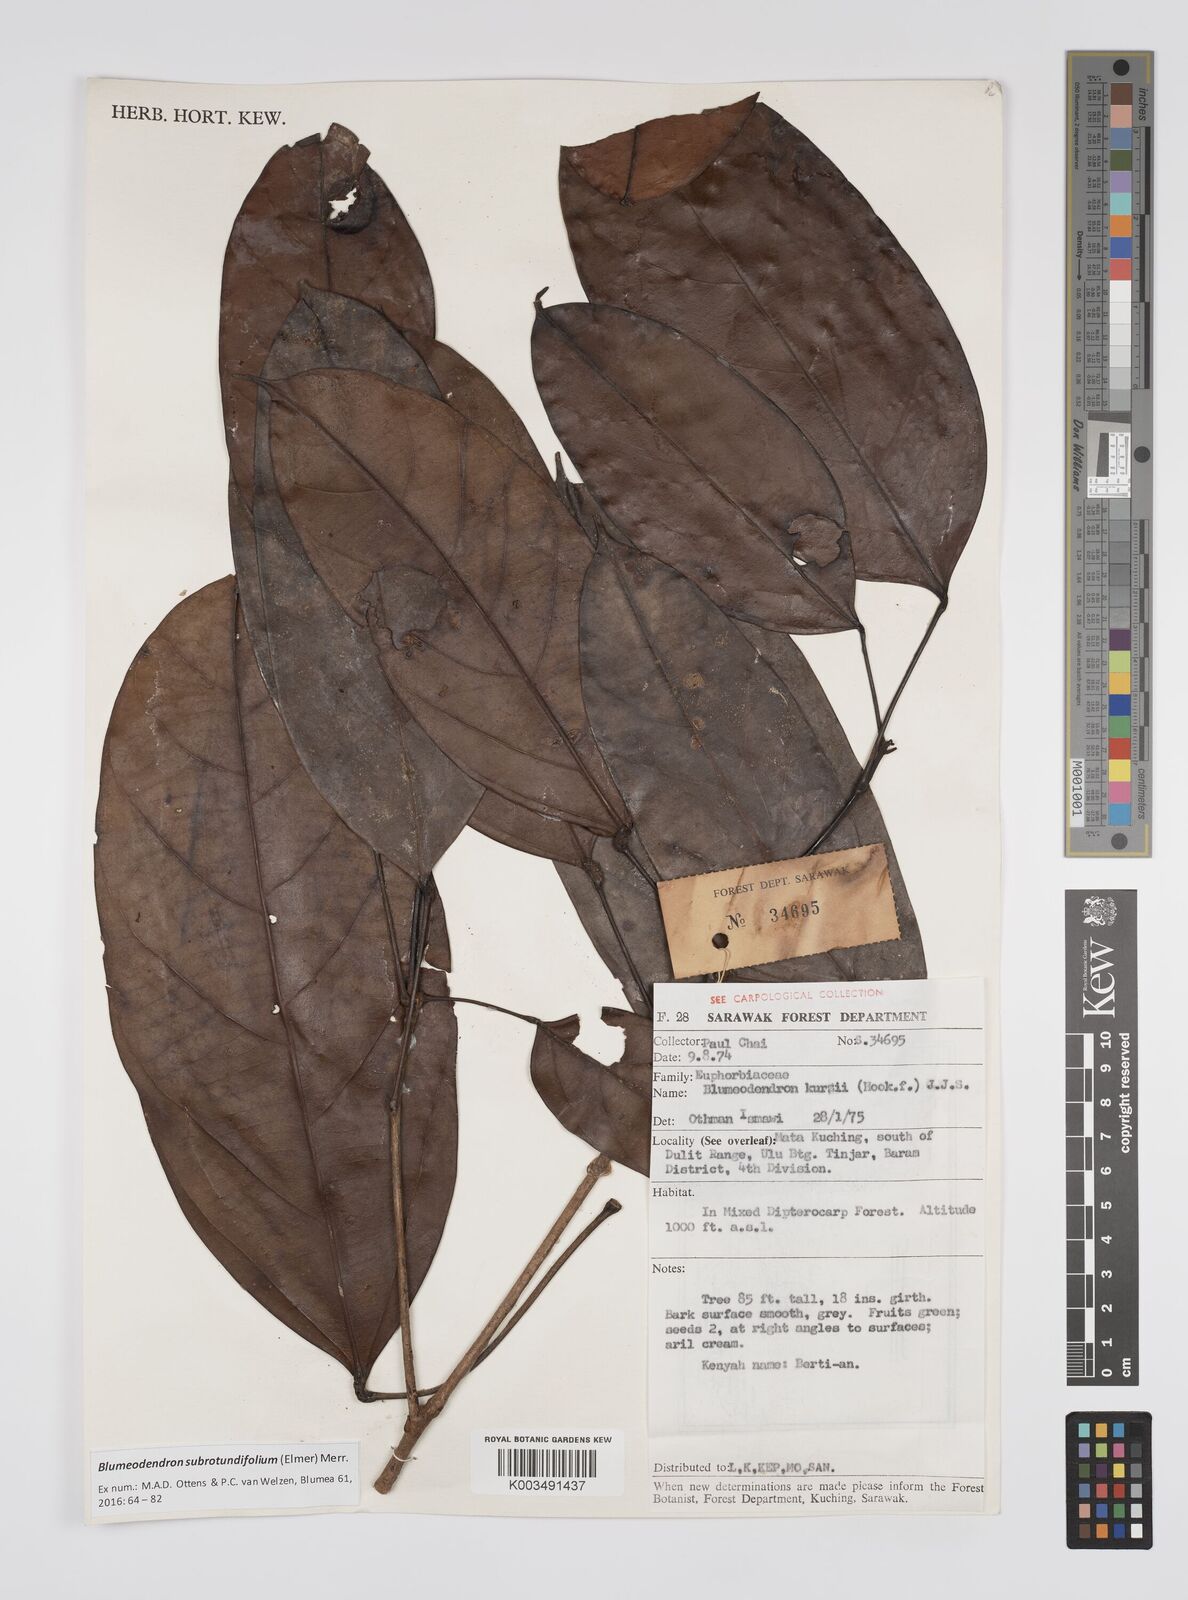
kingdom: Plantae
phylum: Tracheophyta
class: Magnoliopsida
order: Malpighiales
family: Euphorbiaceae
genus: Blumeodendron
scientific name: Blumeodendron subrotundifolium
